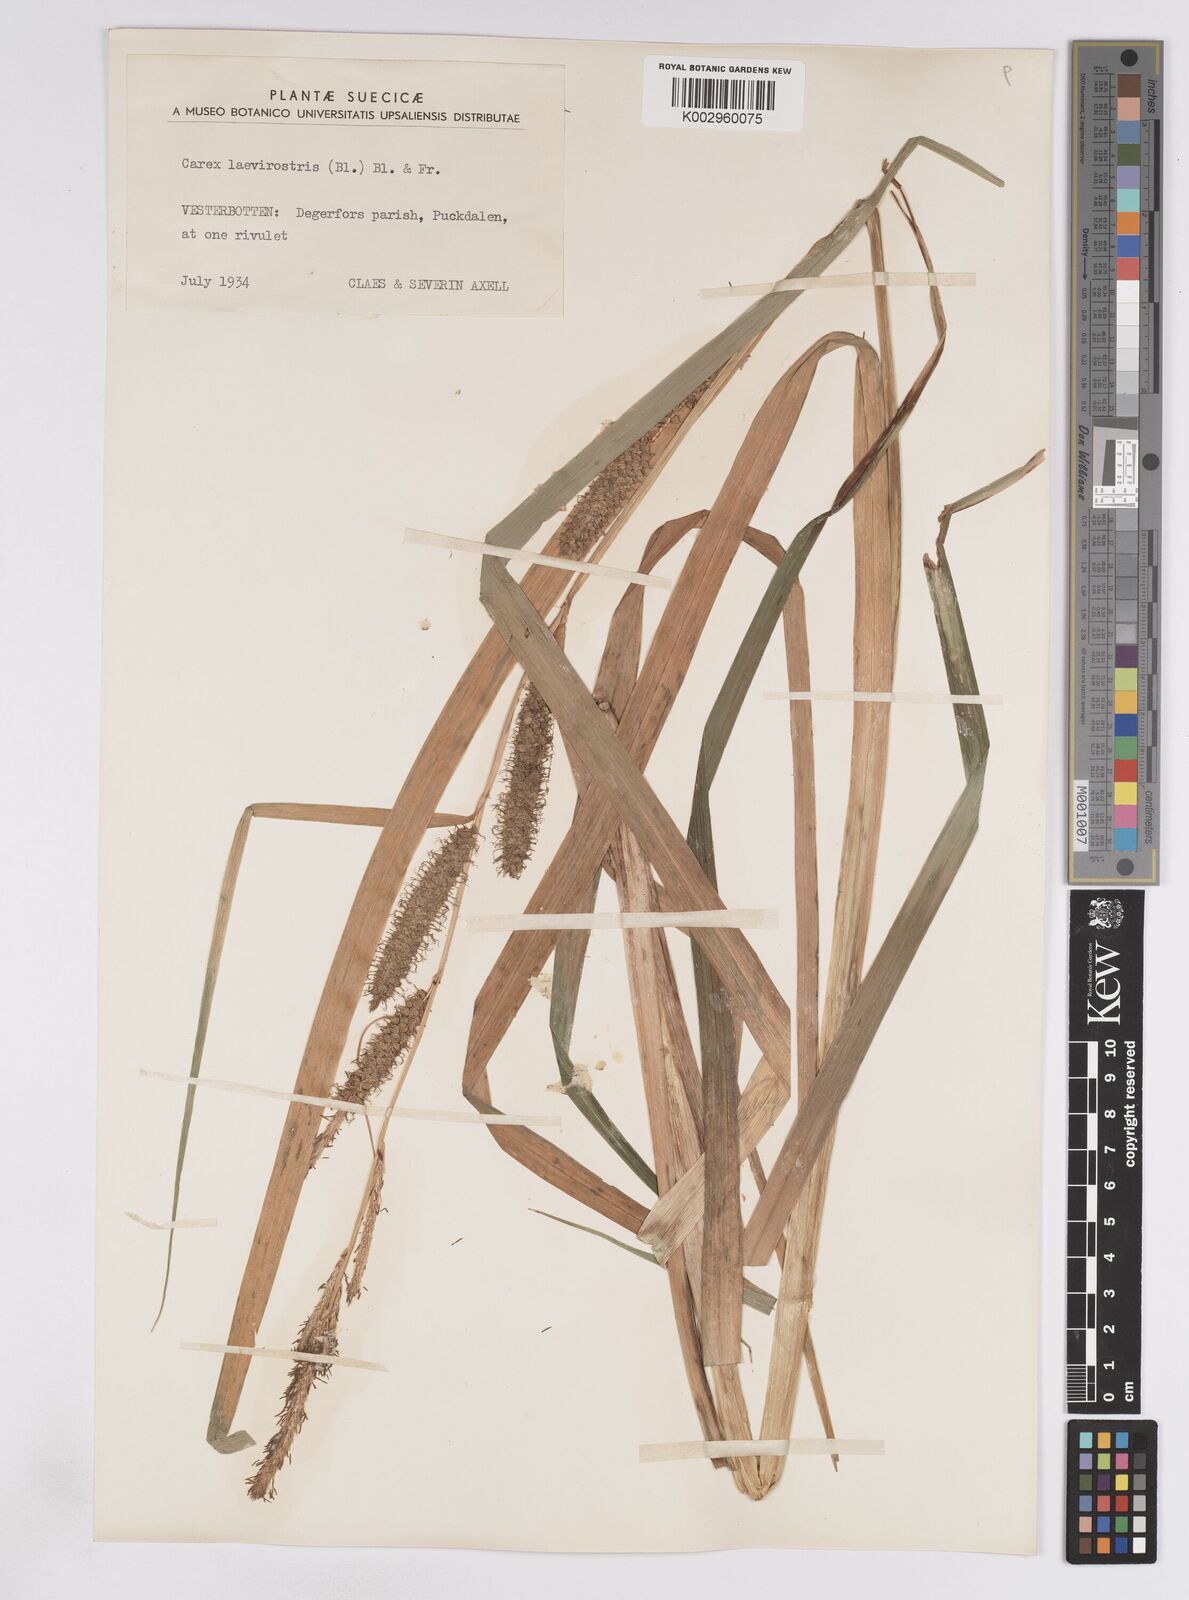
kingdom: Plantae
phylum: Tracheophyta
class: Liliopsida
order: Poales
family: Cyperaceae
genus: Carex
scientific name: Carex utriculata
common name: Beaked sedge
